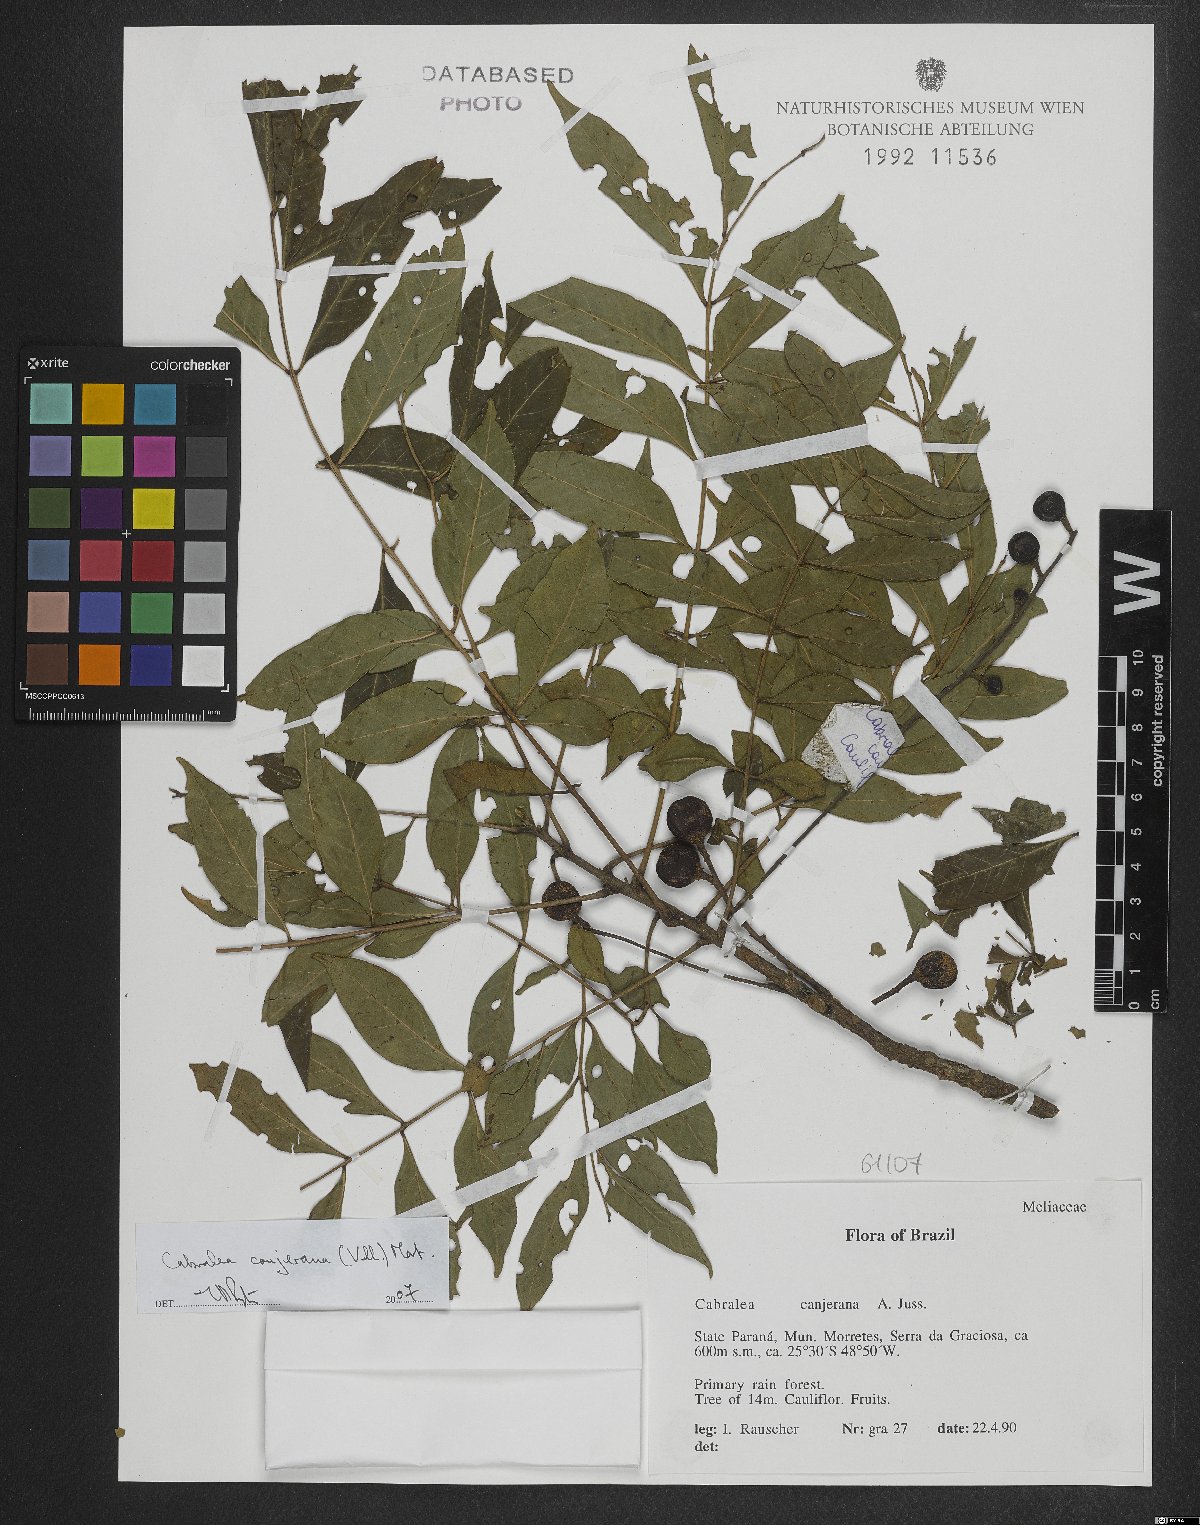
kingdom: Plantae
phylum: Tracheophyta
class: Magnoliopsida
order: Sapindales
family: Meliaceae
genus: Cabralea
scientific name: Cabralea canjerana
